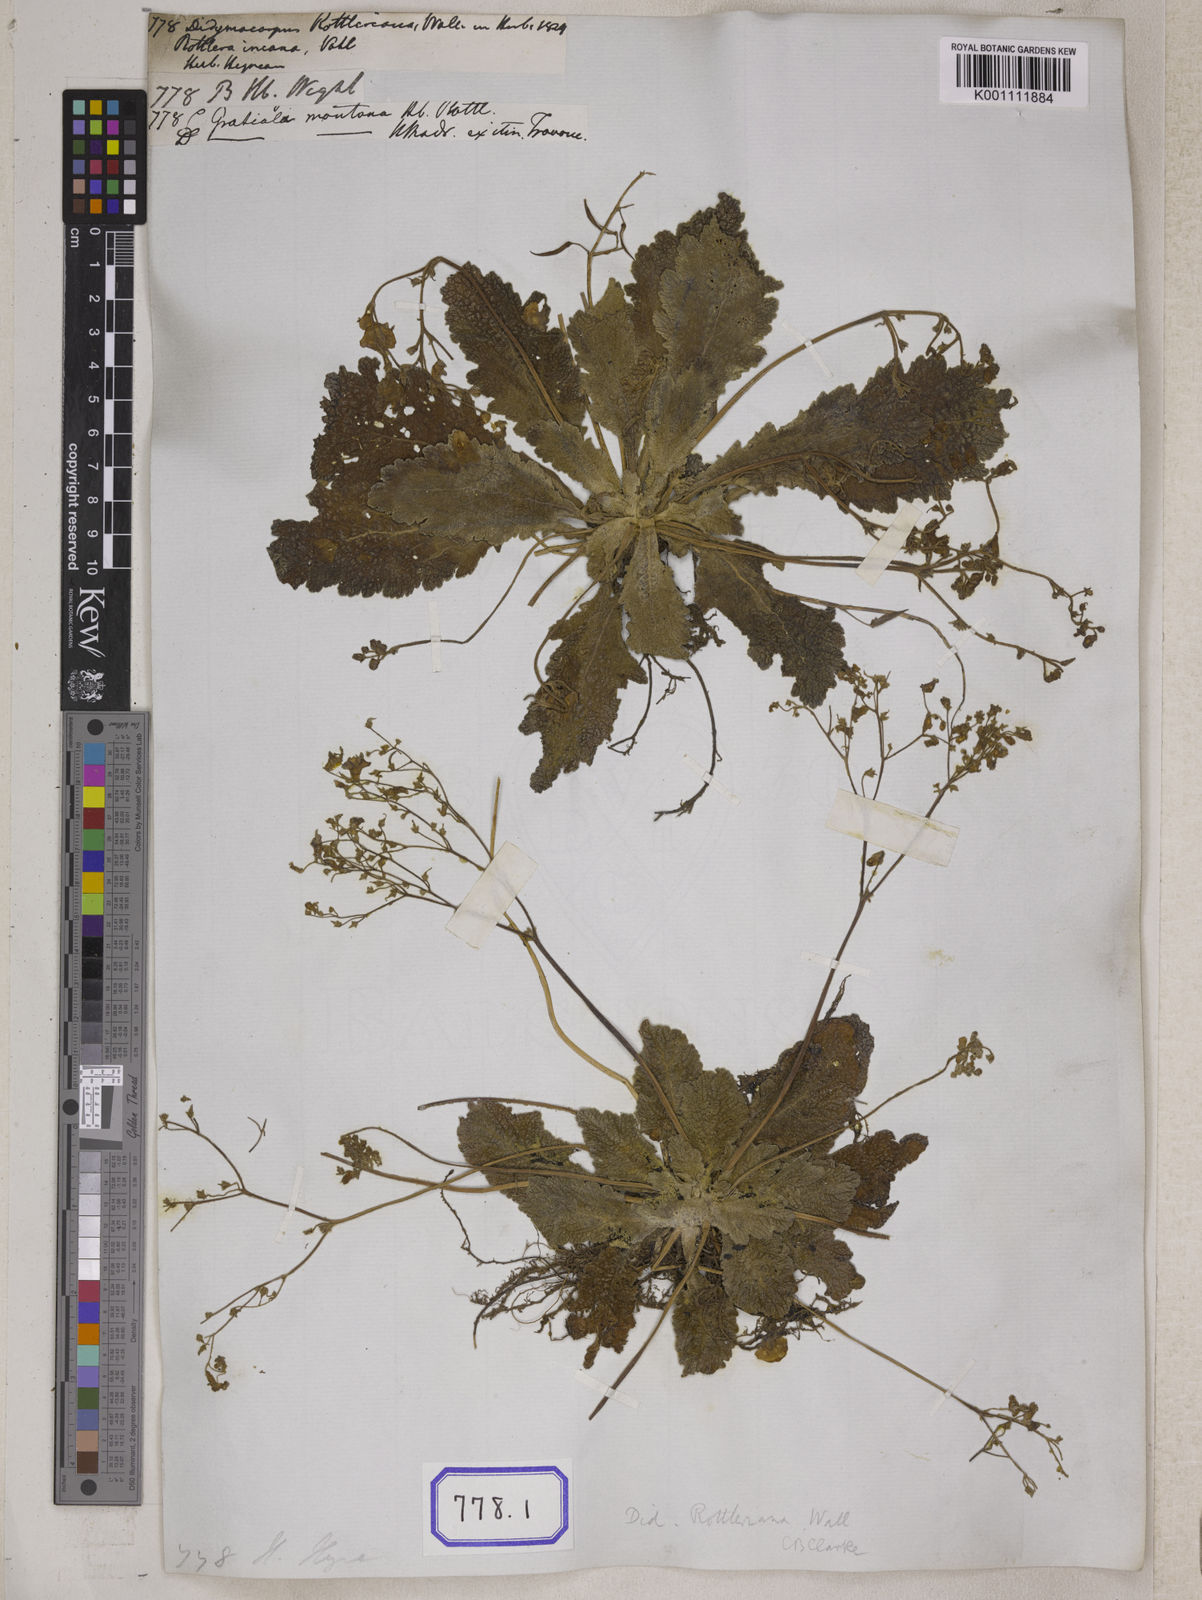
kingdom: Plantae
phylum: Tracheophyta
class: Magnoliopsida
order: Lamiales
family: Gesneriaceae
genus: Didymocarpus
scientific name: Didymocarpus
